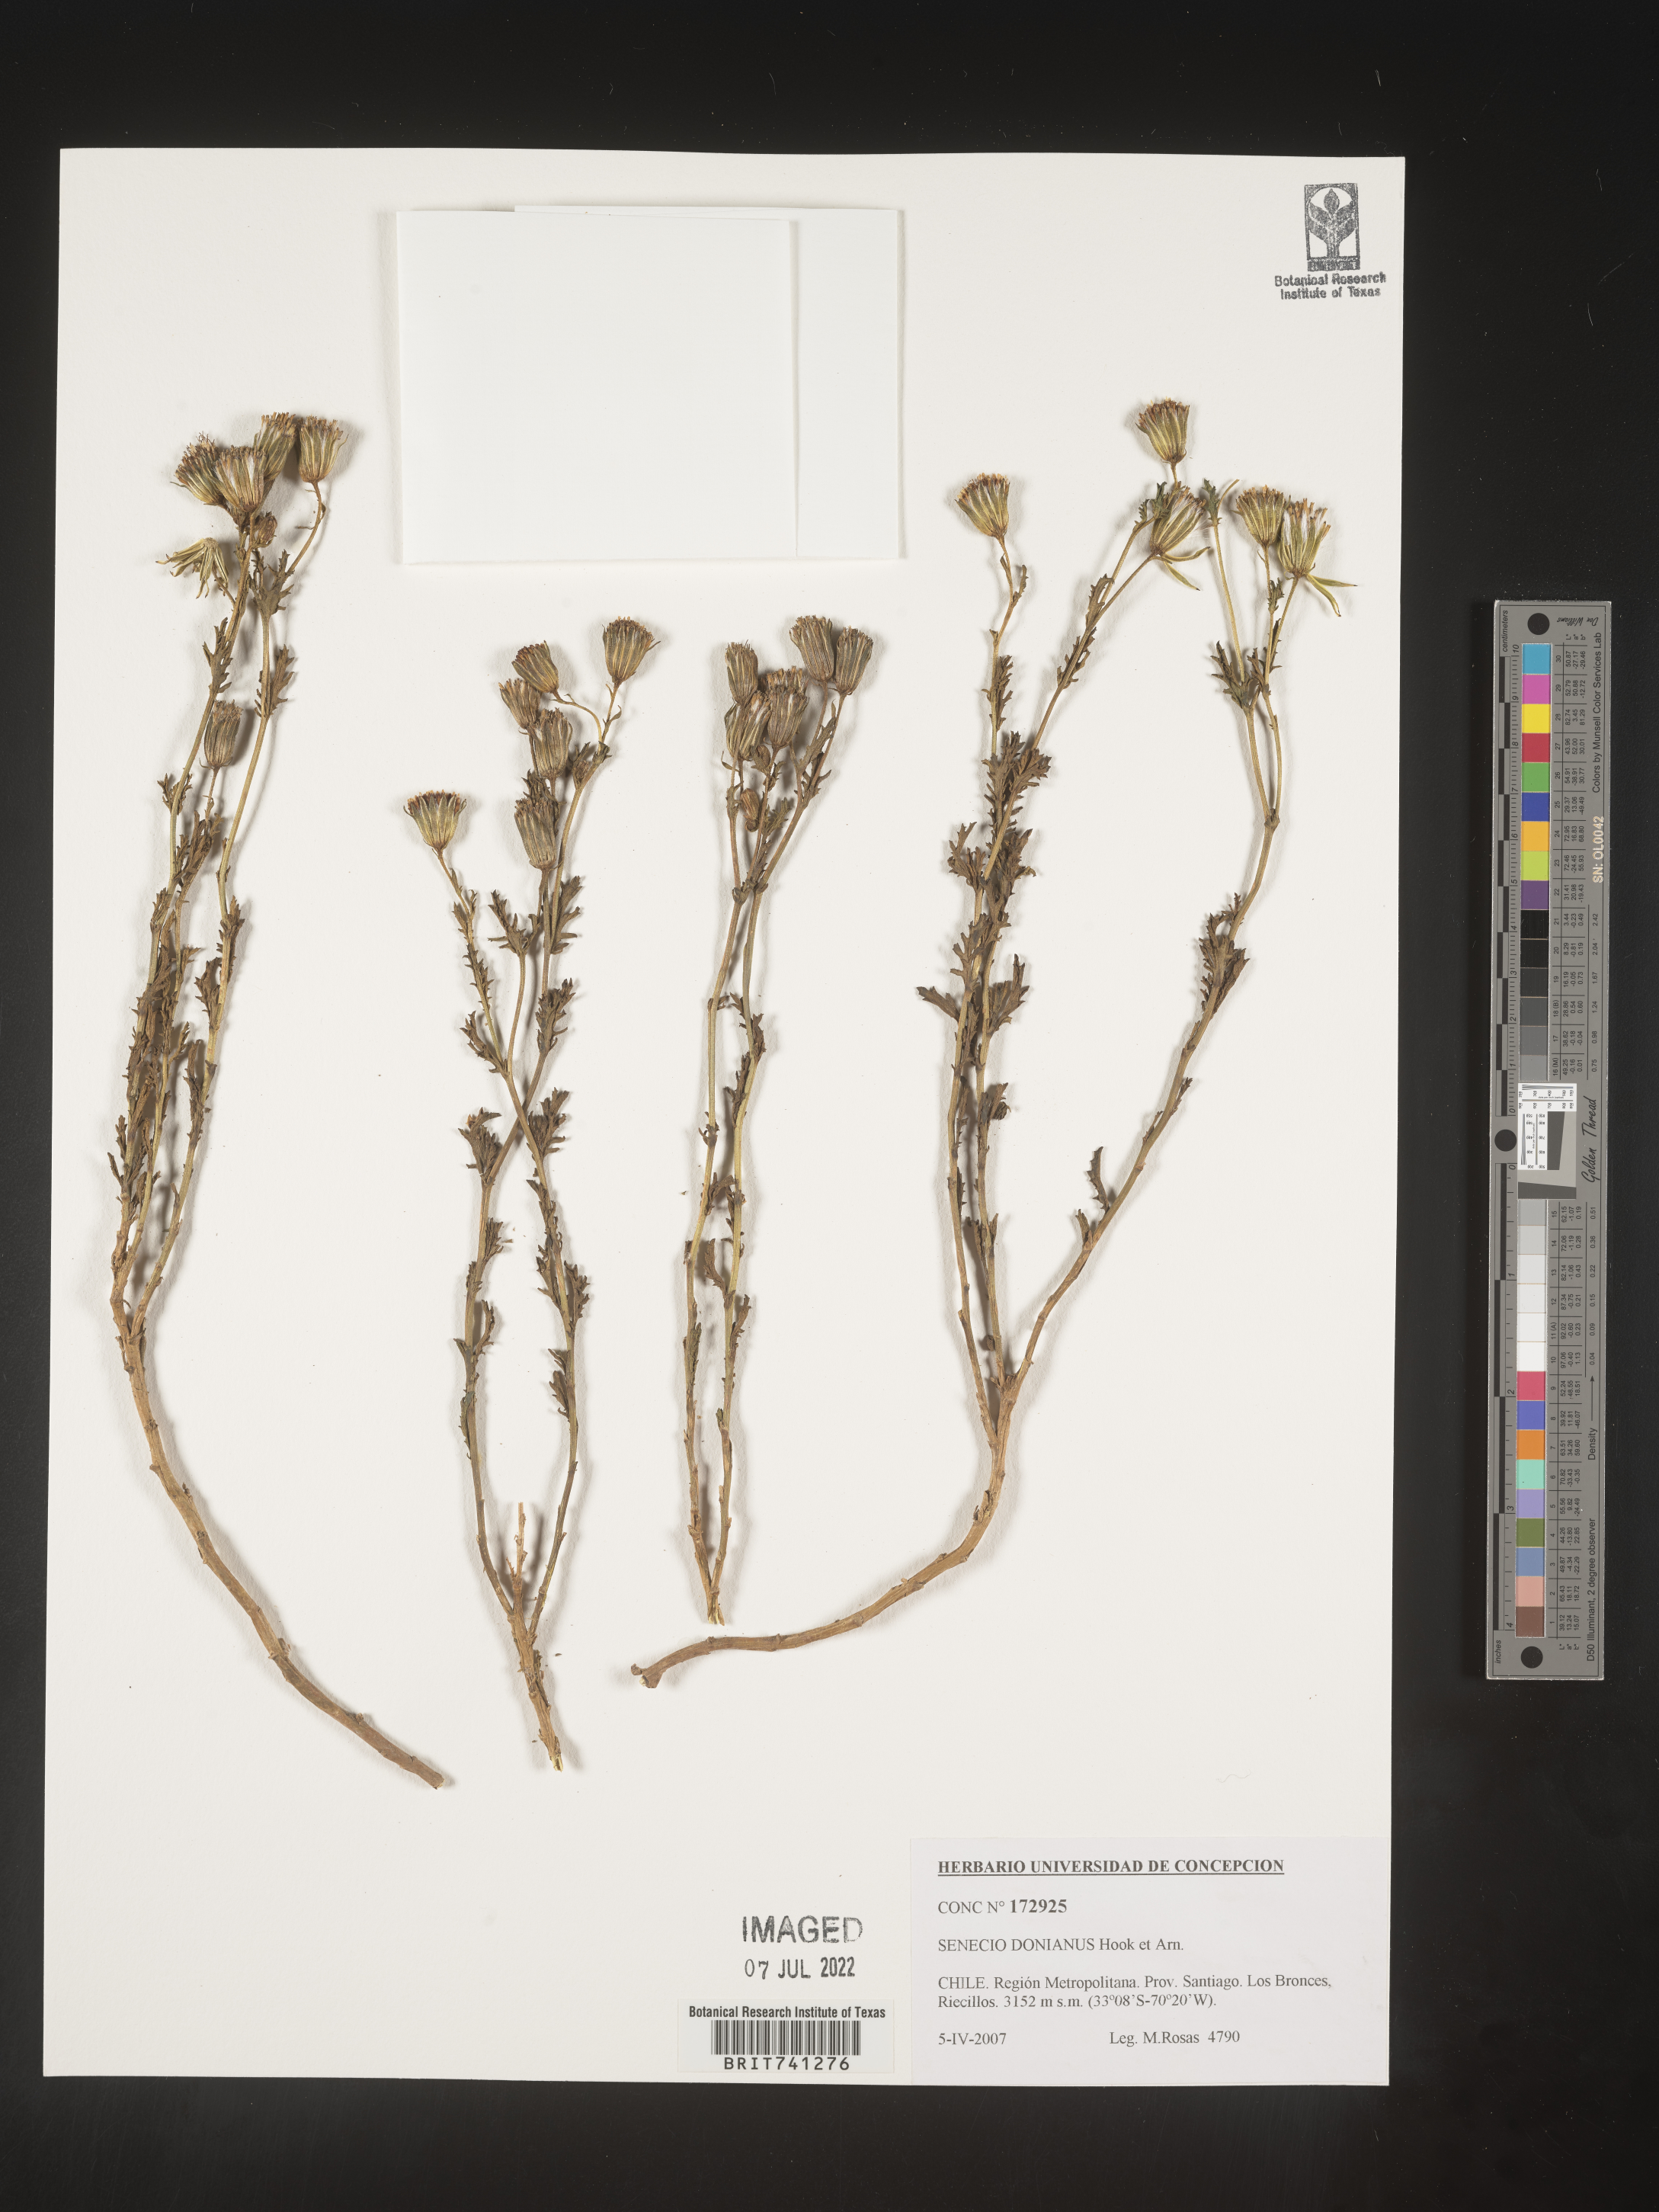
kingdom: Plantae
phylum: Tracheophyta
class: Magnoliopsida
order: Asterales
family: Asteraceae
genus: Senecio
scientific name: Senecio
